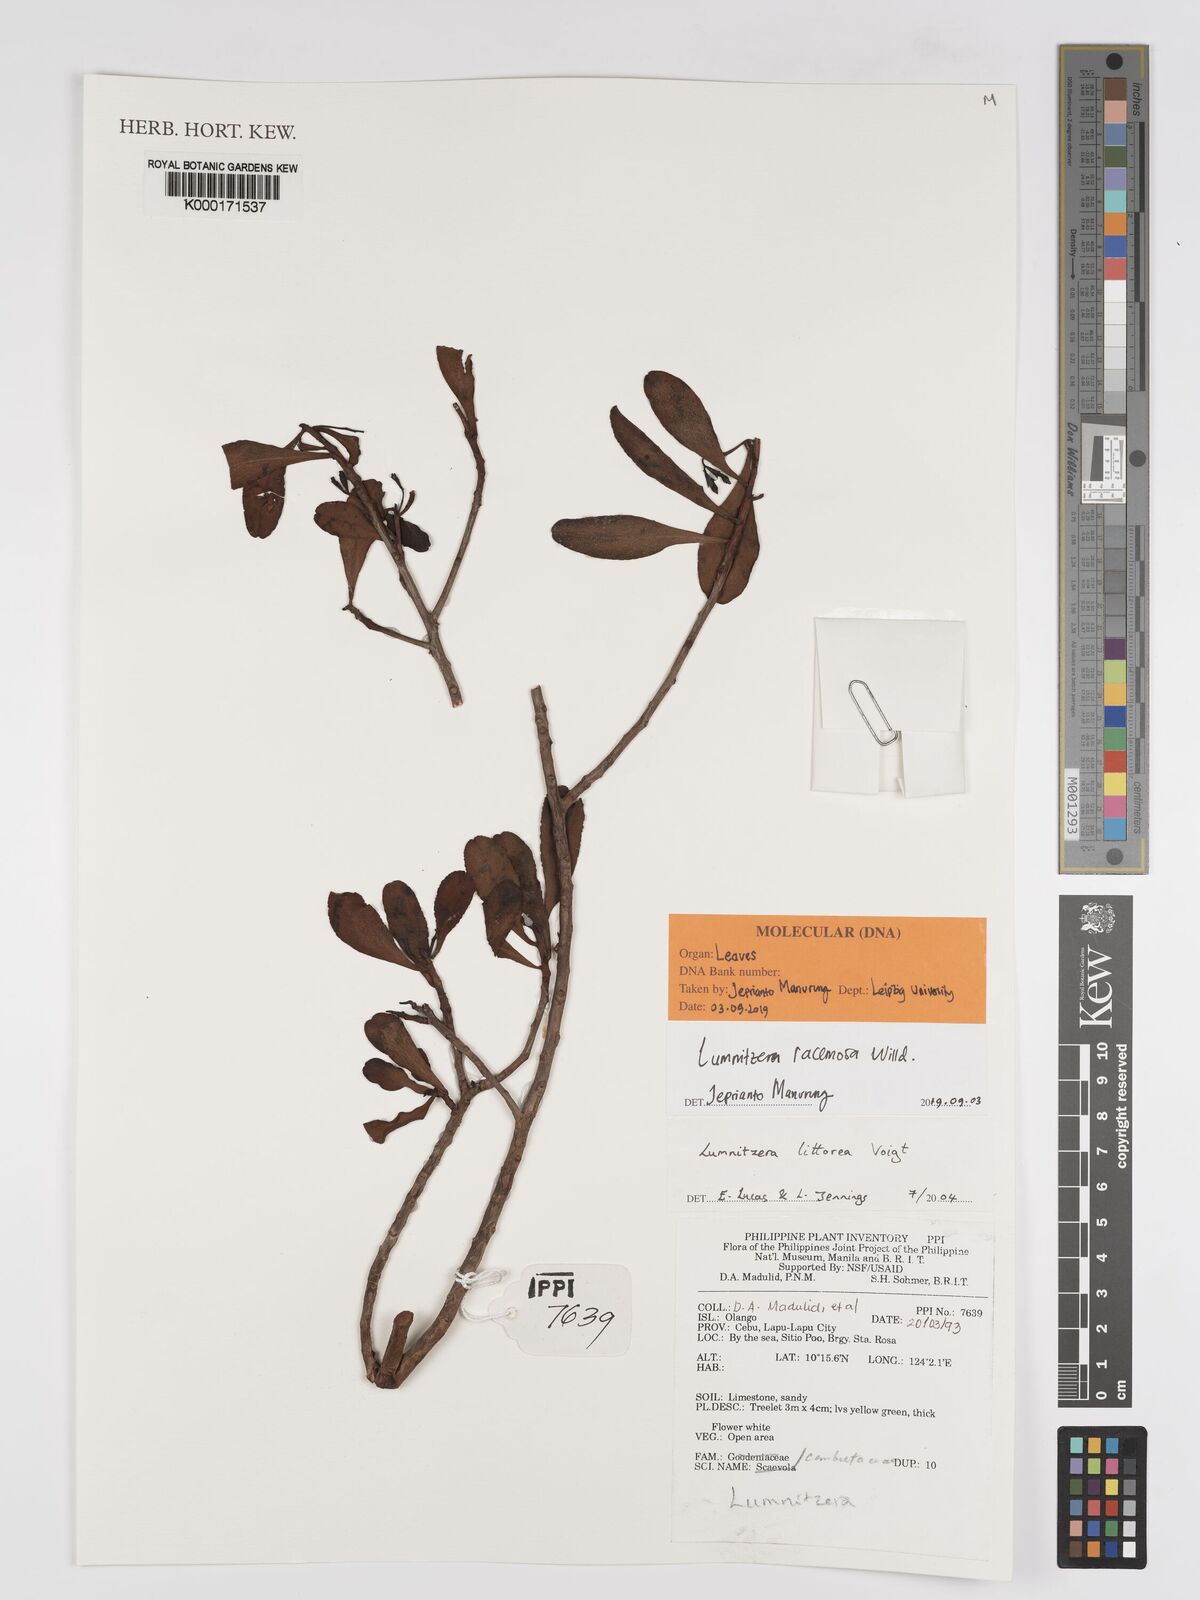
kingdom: Plantae
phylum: Tracheophyta
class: Magnoliopsida
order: Myrtales
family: Combretaceae
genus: Lumnitzera
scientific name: Lumnitzera littorea
